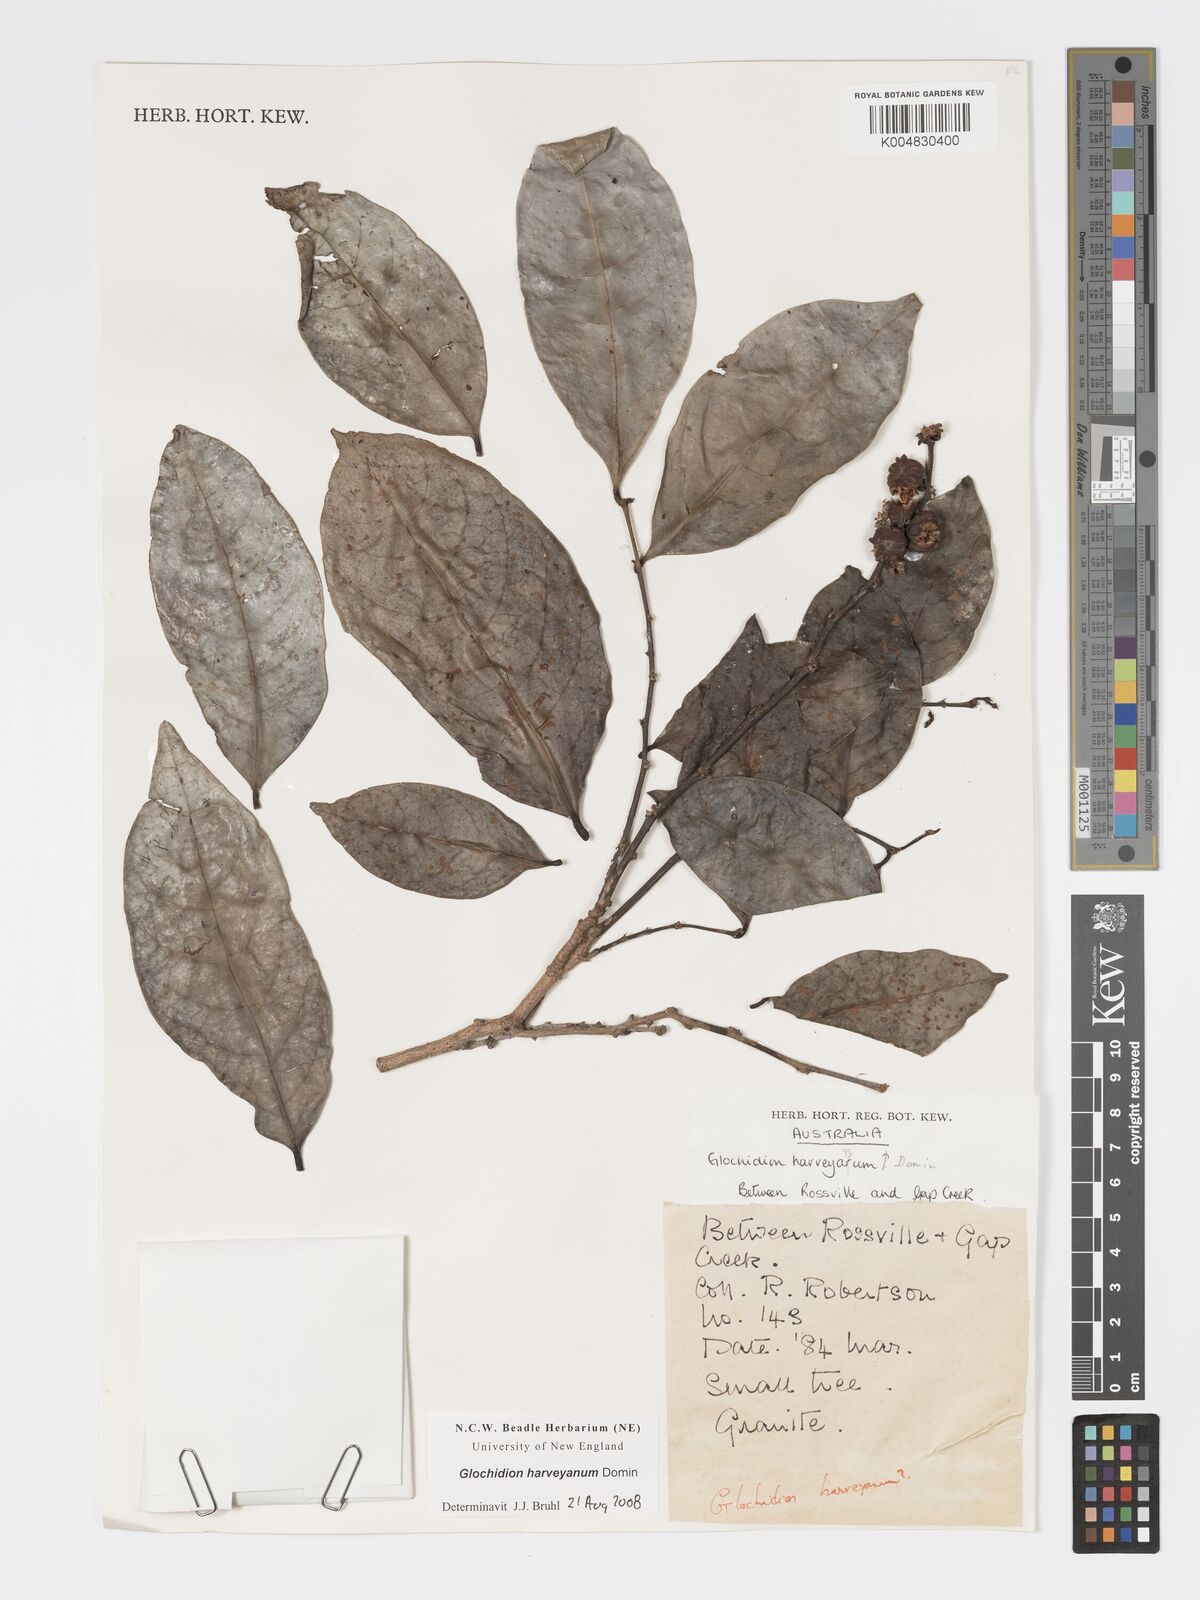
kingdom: Plantae
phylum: Tracheophyta
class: Magnoliopsida
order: Malpighiales
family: Phyllanthaceae
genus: Glochidion
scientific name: Glochidion harveyanum
